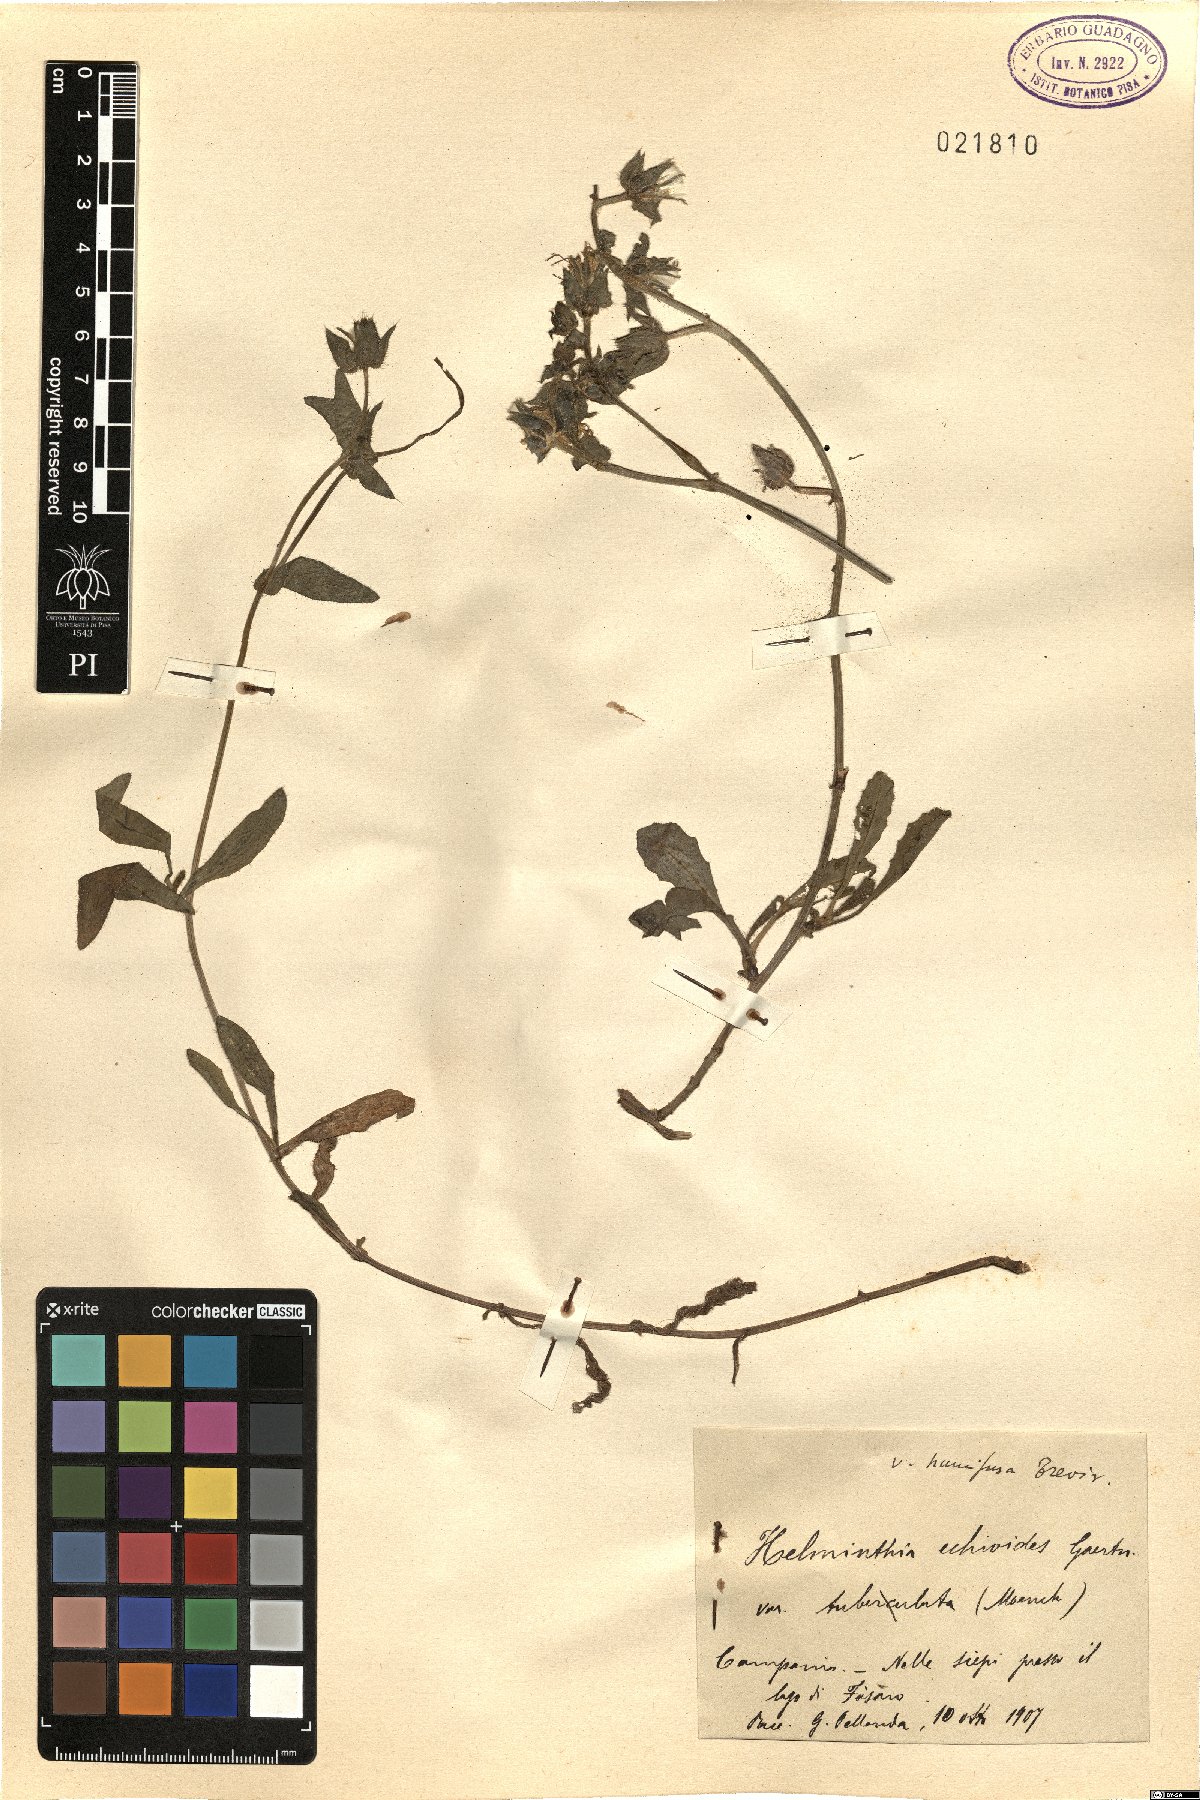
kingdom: Plantae
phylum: Tracheophyta
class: Magnoliopsida
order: Asterales
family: Asteraceae
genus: Helminthotheca
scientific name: Helminthotheca echioides
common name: Ox-tongue
